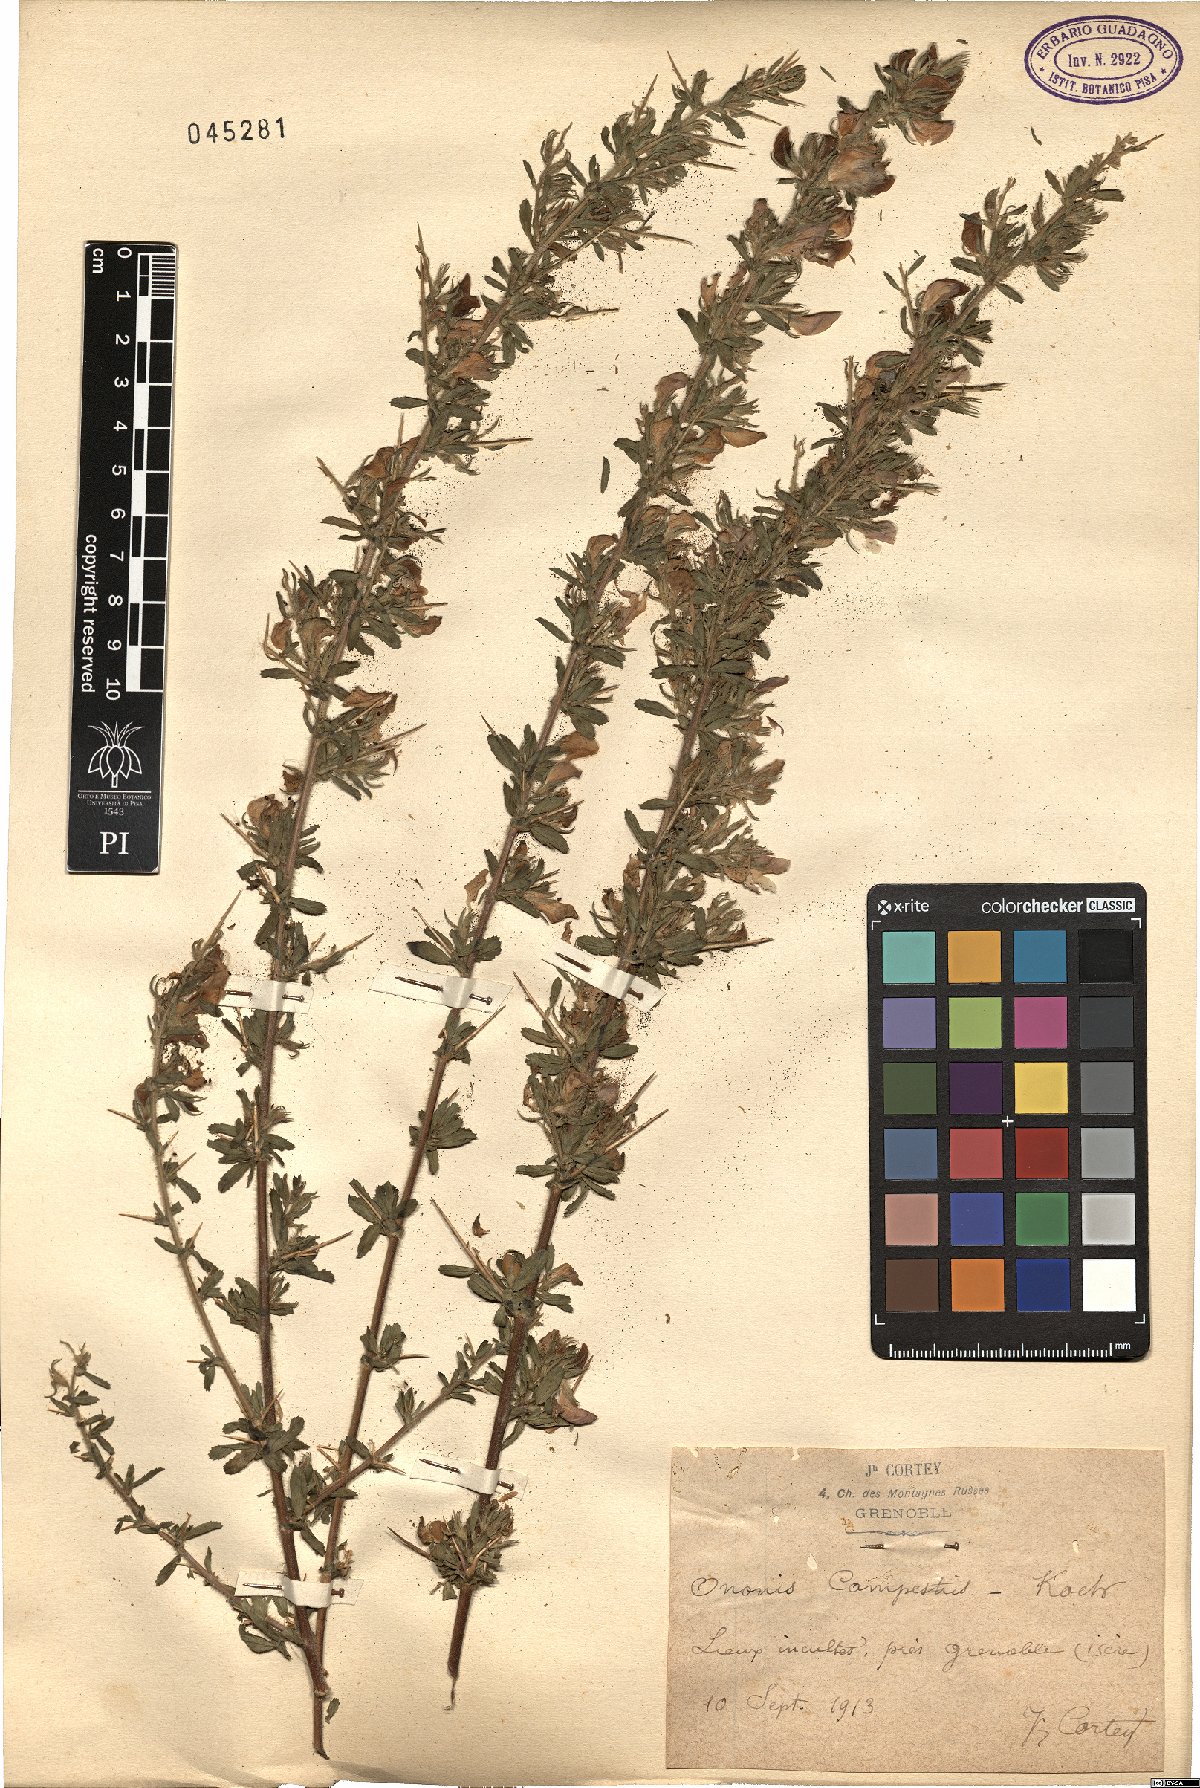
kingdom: Plantae
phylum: Tracheophyta
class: Magnoliopsida
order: Fabales
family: Fabaceae
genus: Ononis
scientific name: Ononis spinosa
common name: Spiny restharrow
